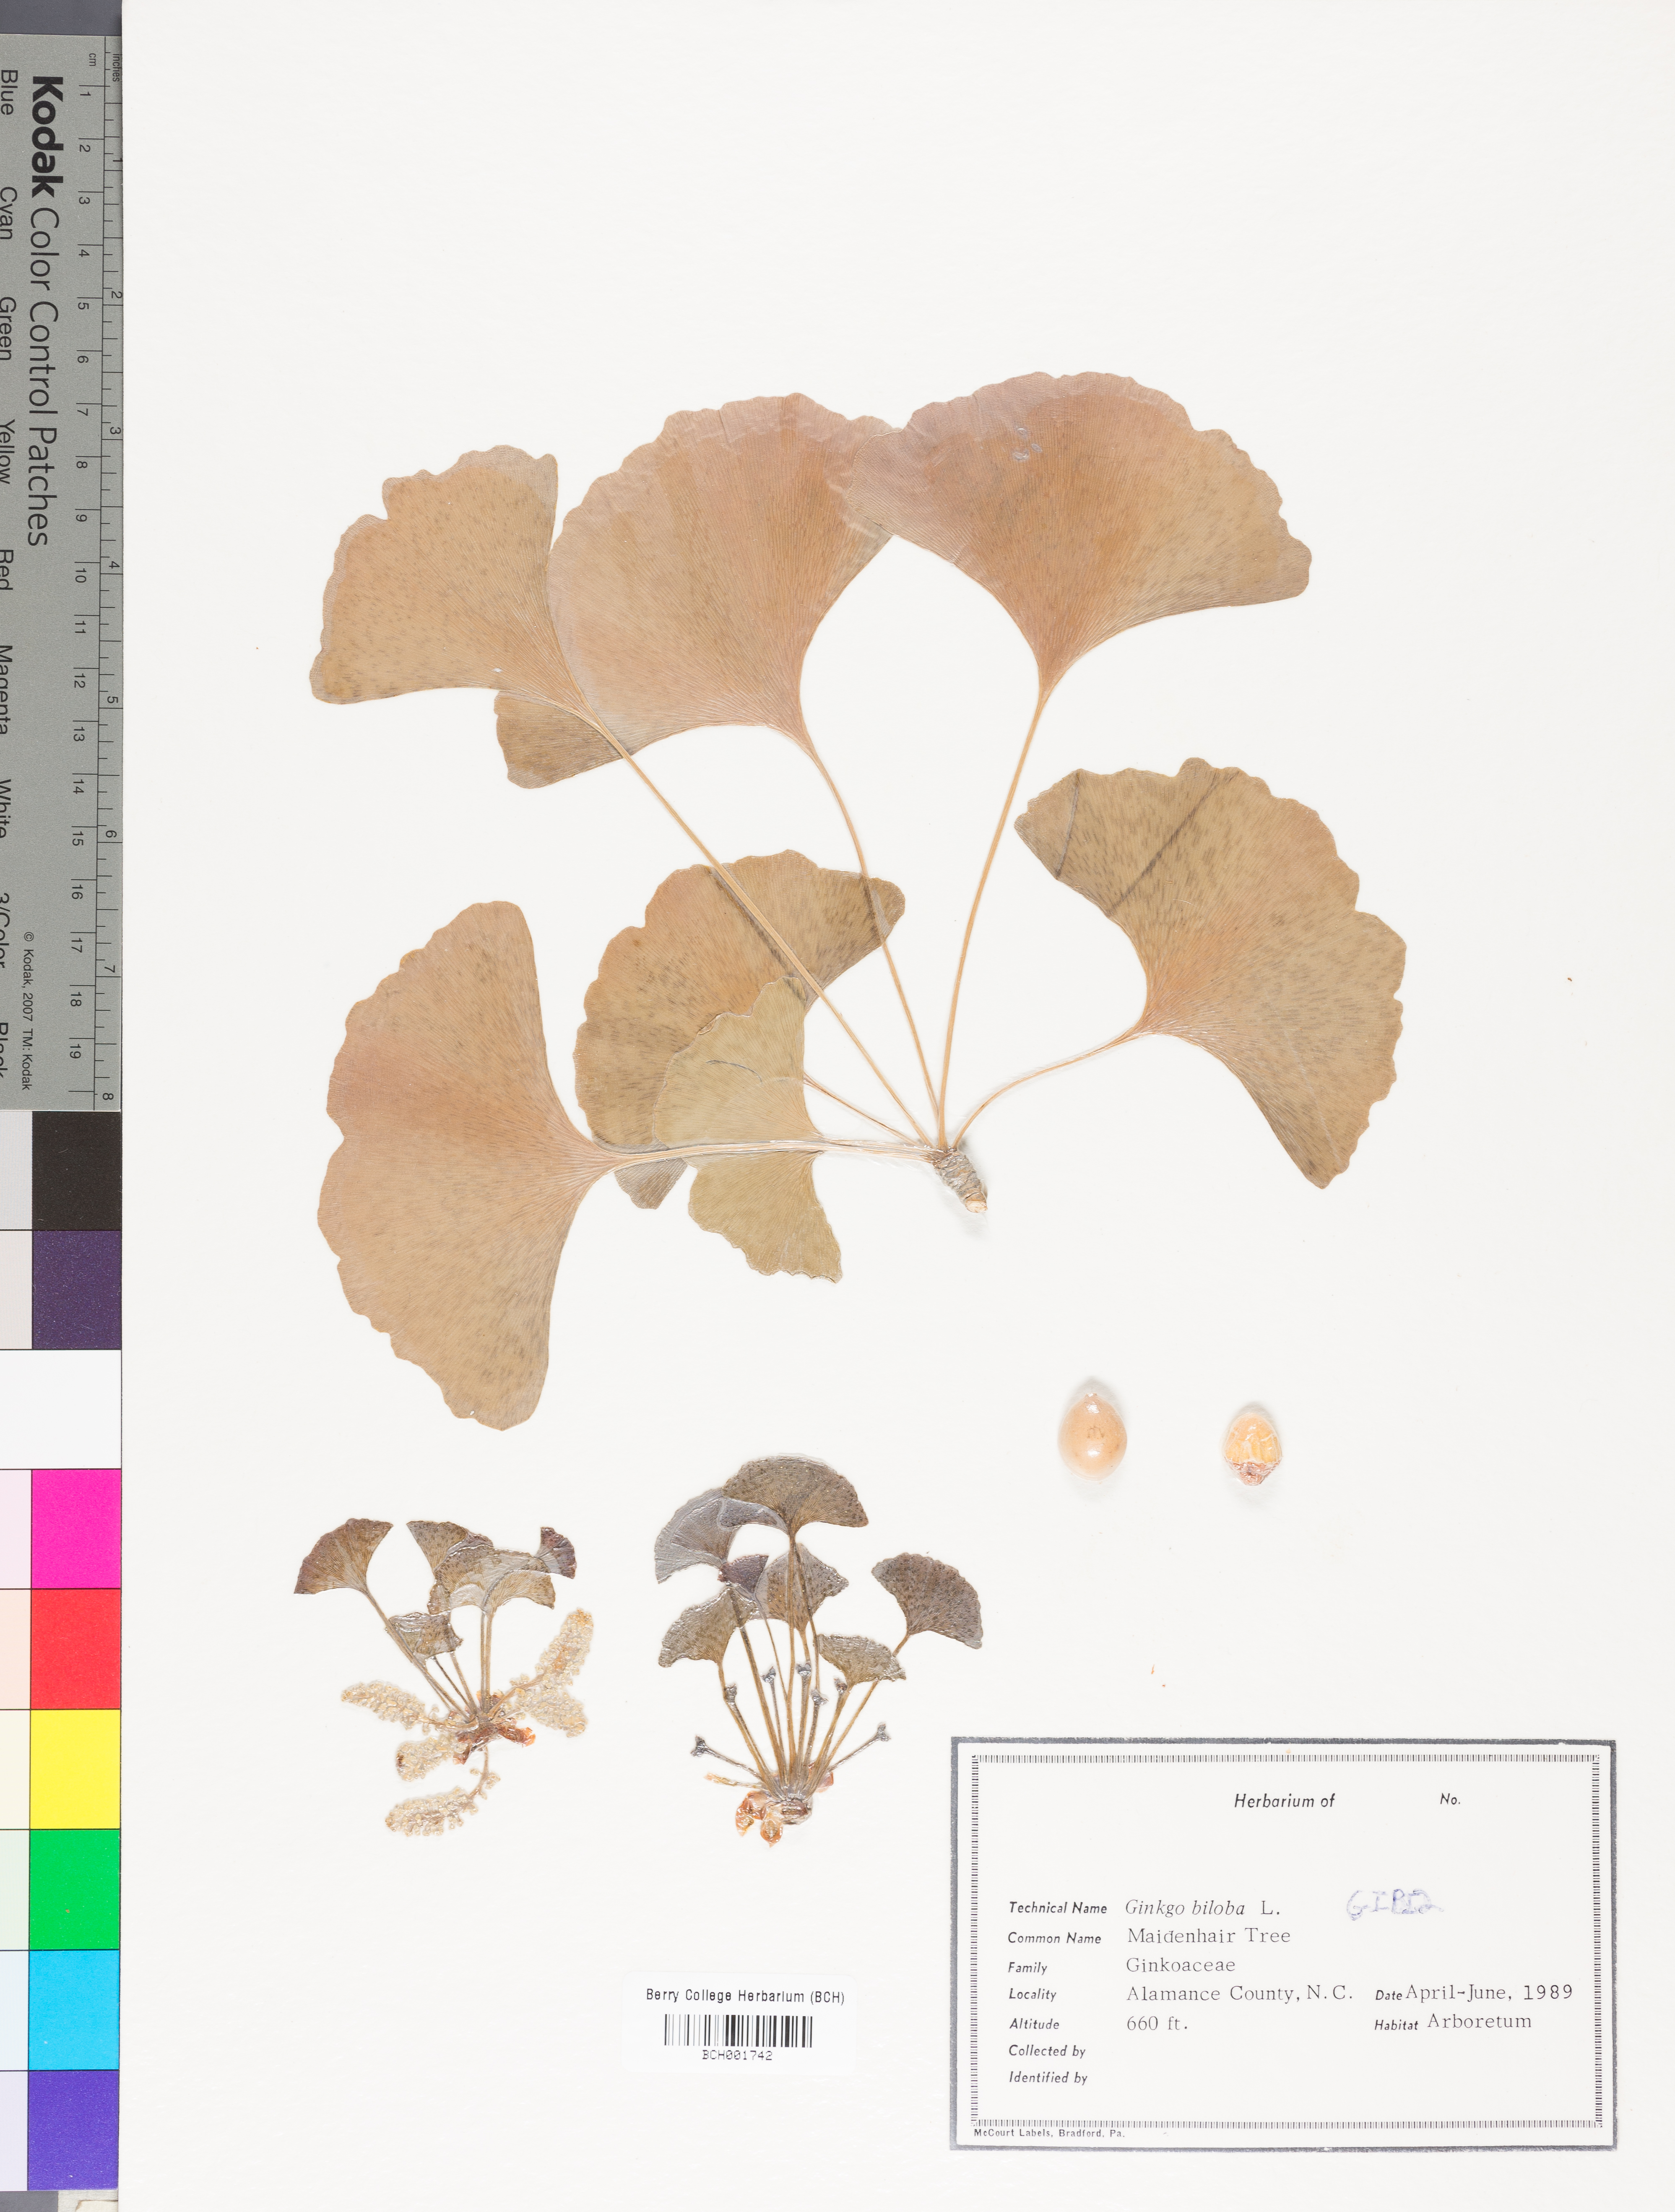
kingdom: Plantae
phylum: Tracheophyta
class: Ginkgoopsida
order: Ginkgoales
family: Ginkgoaceae
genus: Ginkgo
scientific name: Ginkgo biloba
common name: Ginkgo
